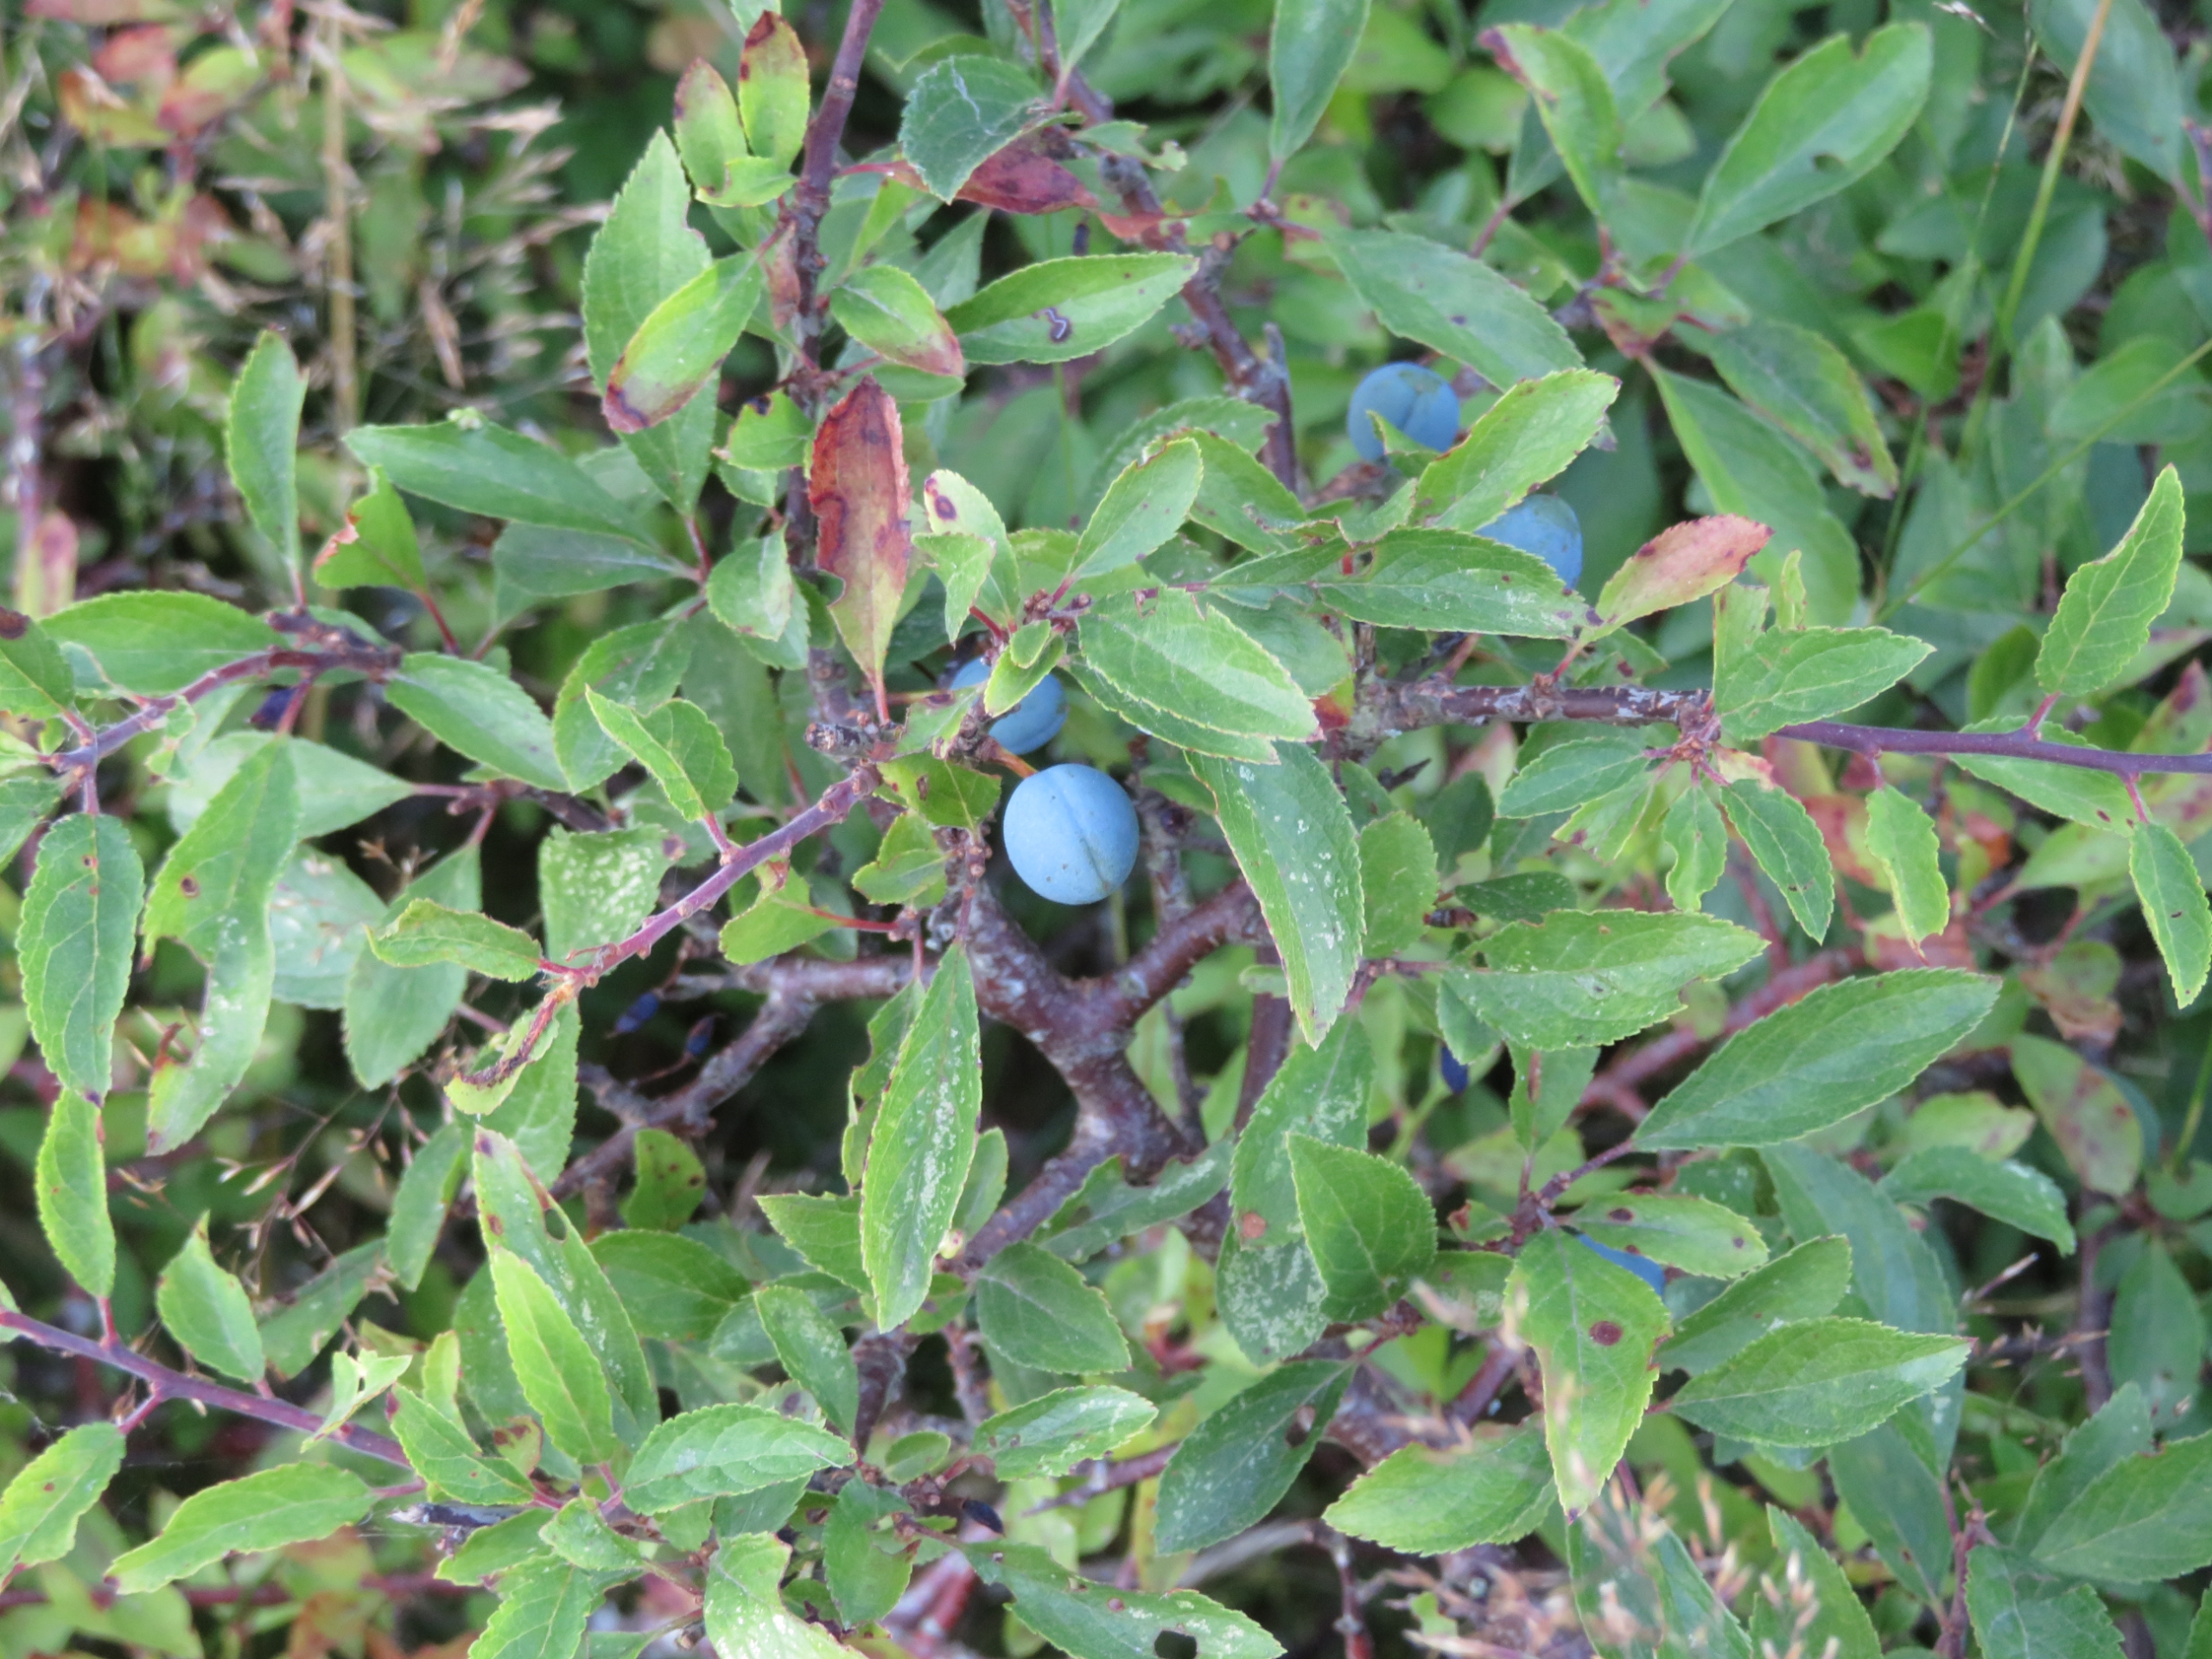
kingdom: Plantae
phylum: Tracheophyta
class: Magnoliopsida
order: Rosales
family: Rosaceae
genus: Prunus
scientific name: Prunus spinosa
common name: Slåen
